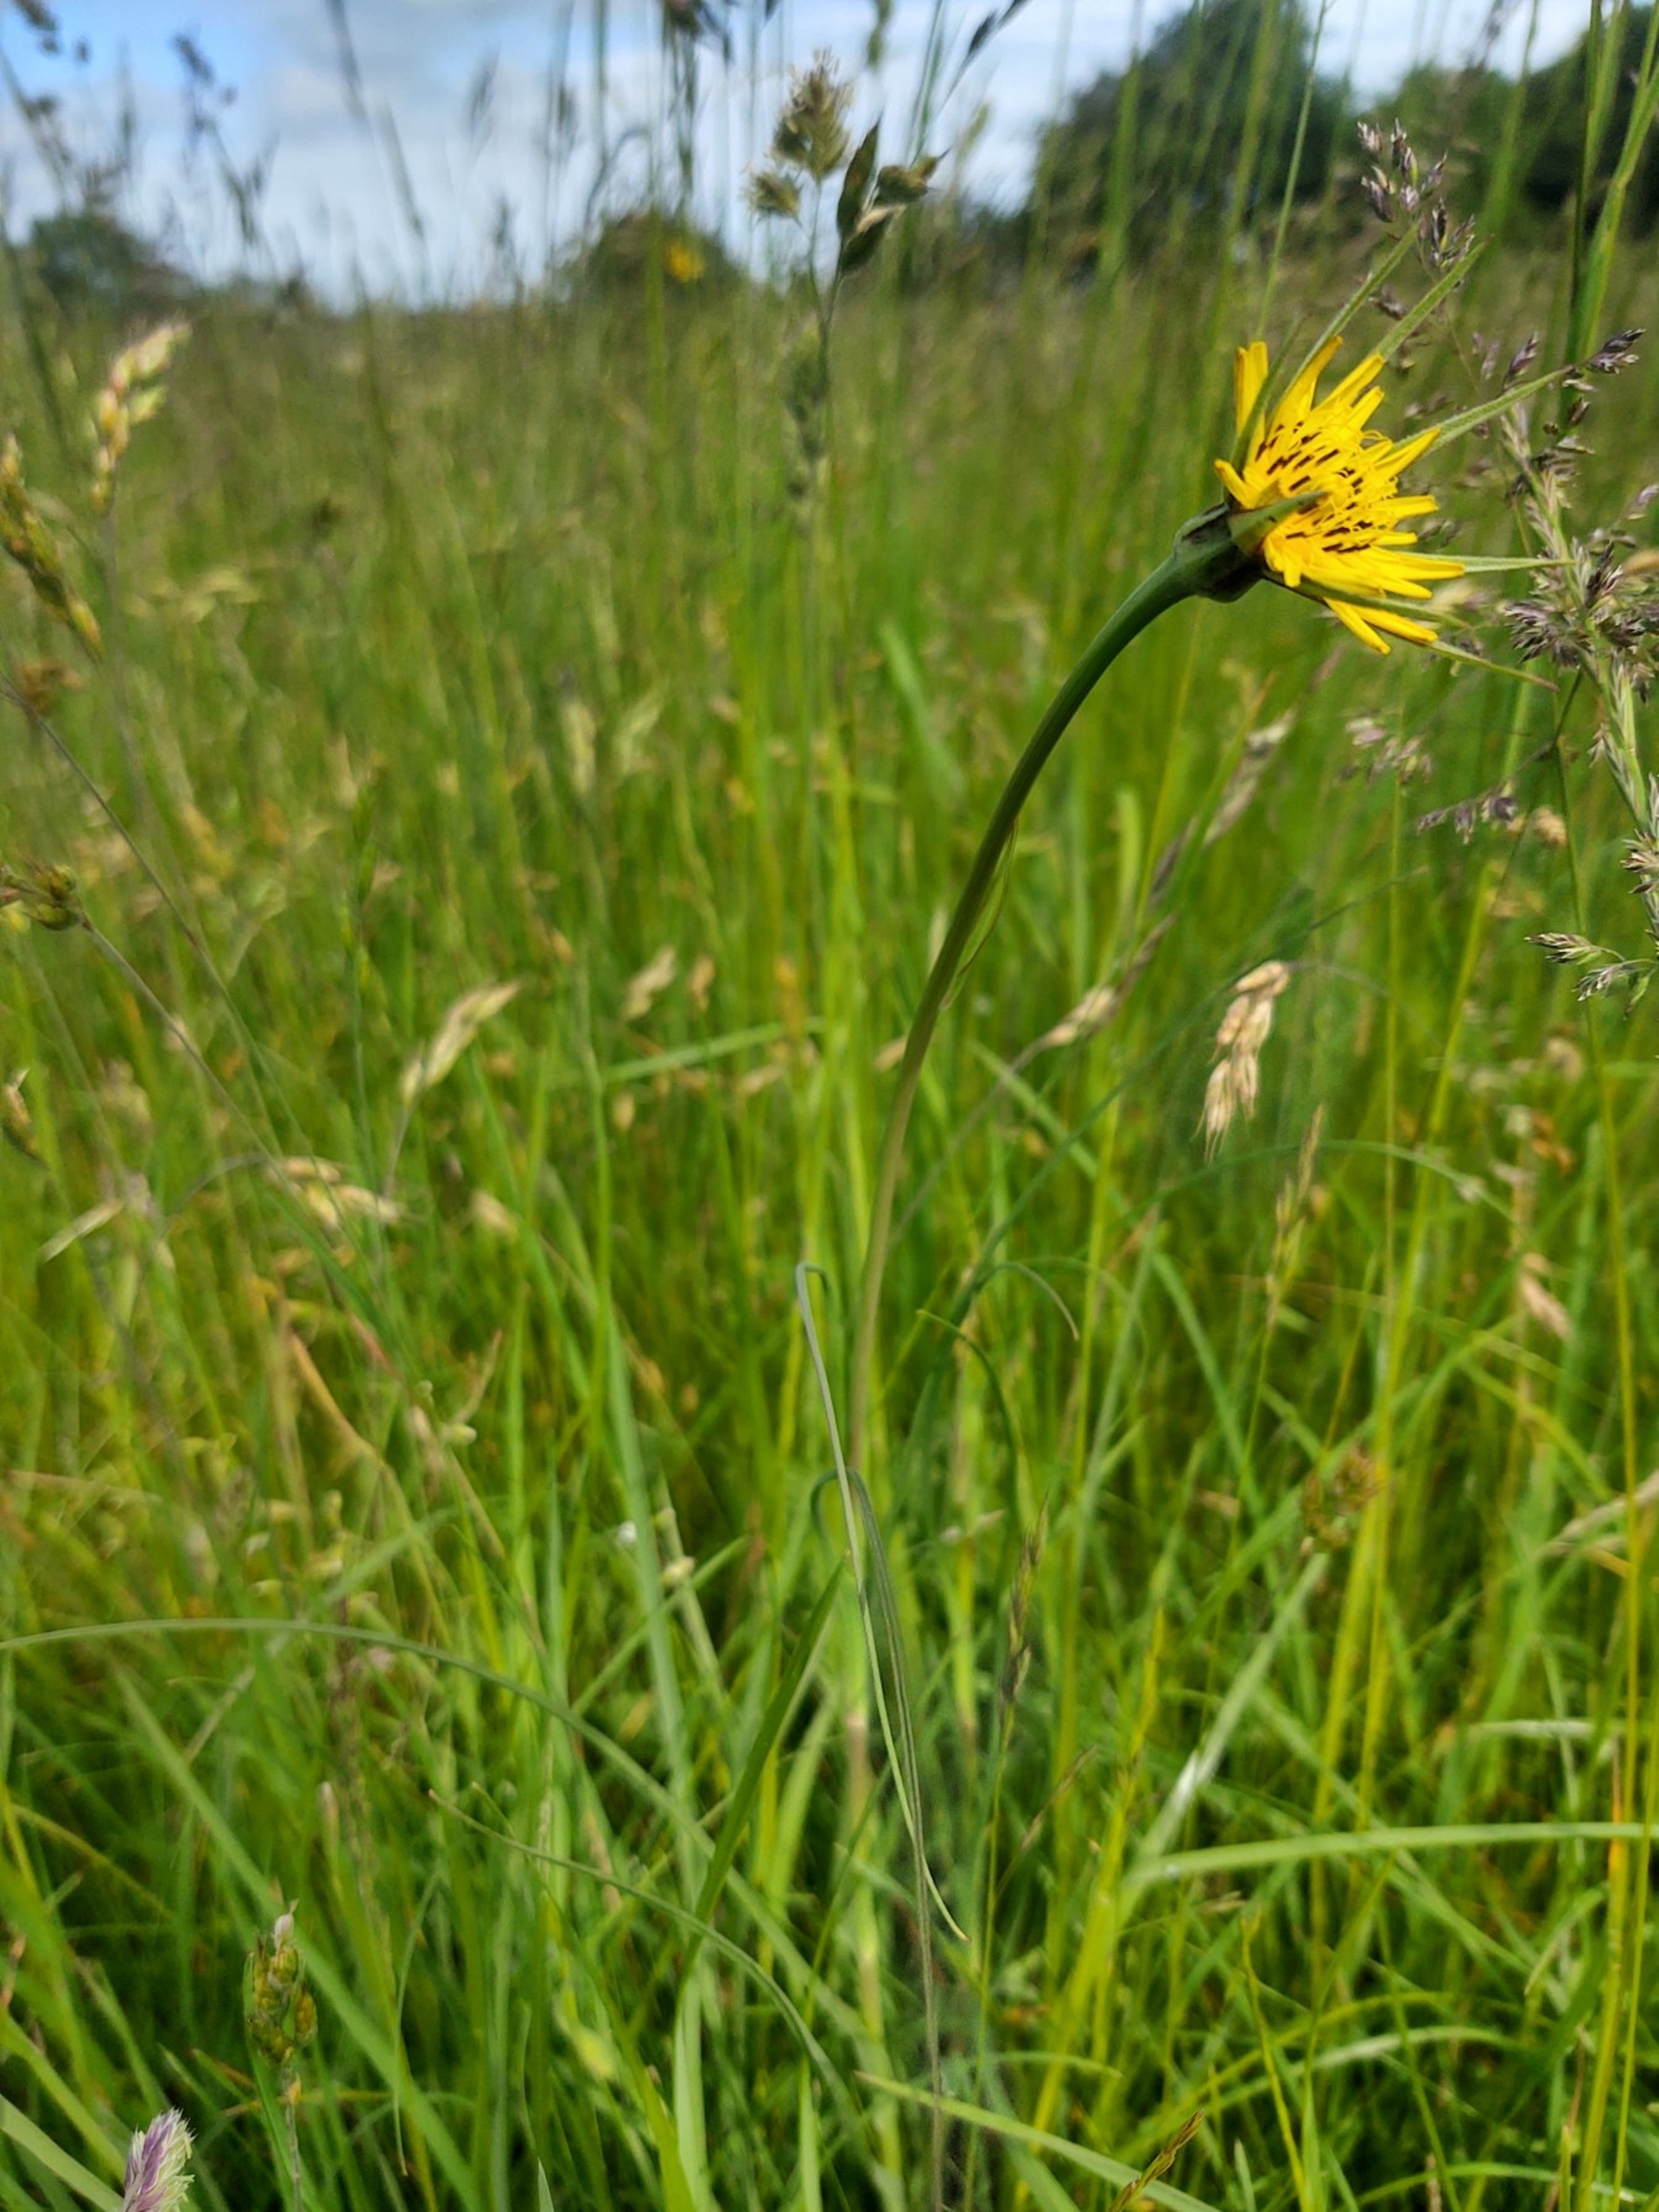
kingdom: Plantae
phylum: Tracheophyta
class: Magnoliopsida
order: Asterales
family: Asteraceae
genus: Tragopogon
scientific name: Tragopogon minor
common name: Småkronet gedeskæg
